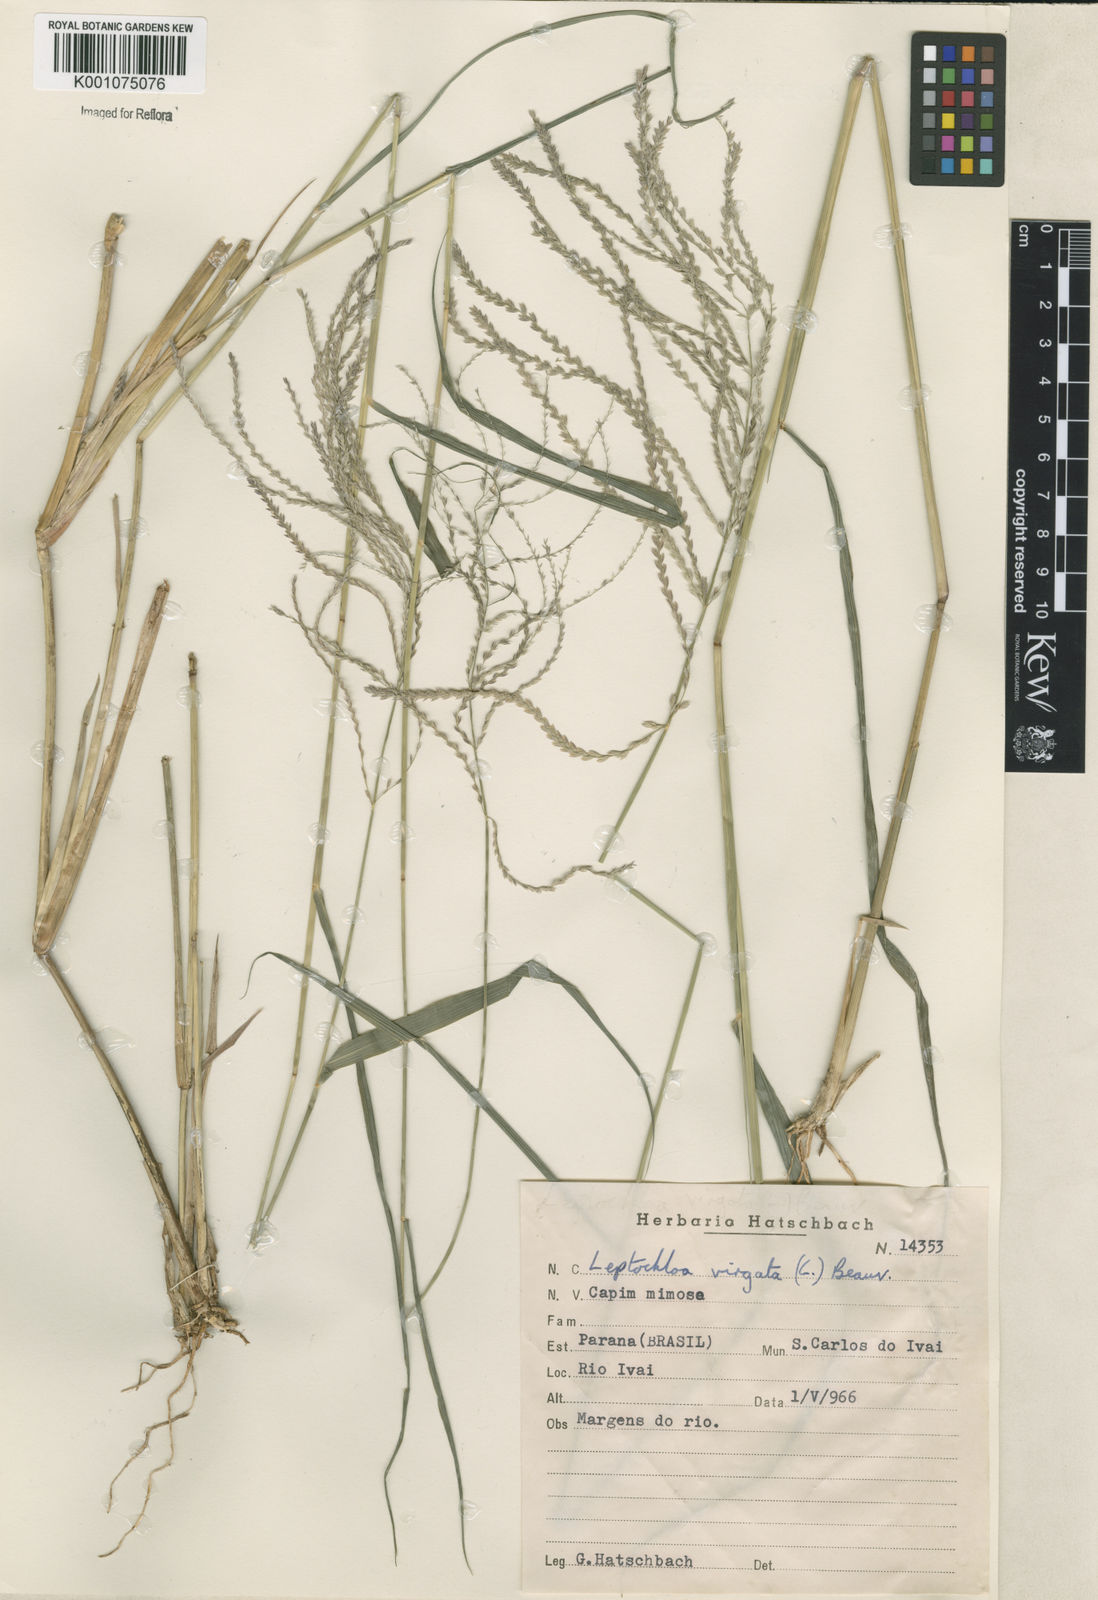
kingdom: Plantae
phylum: Tracheophyta
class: Liliopsida
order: Poales
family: Poaceae
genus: Leptochloa
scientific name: Leptochloa virgata
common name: Tropical sprangletop
